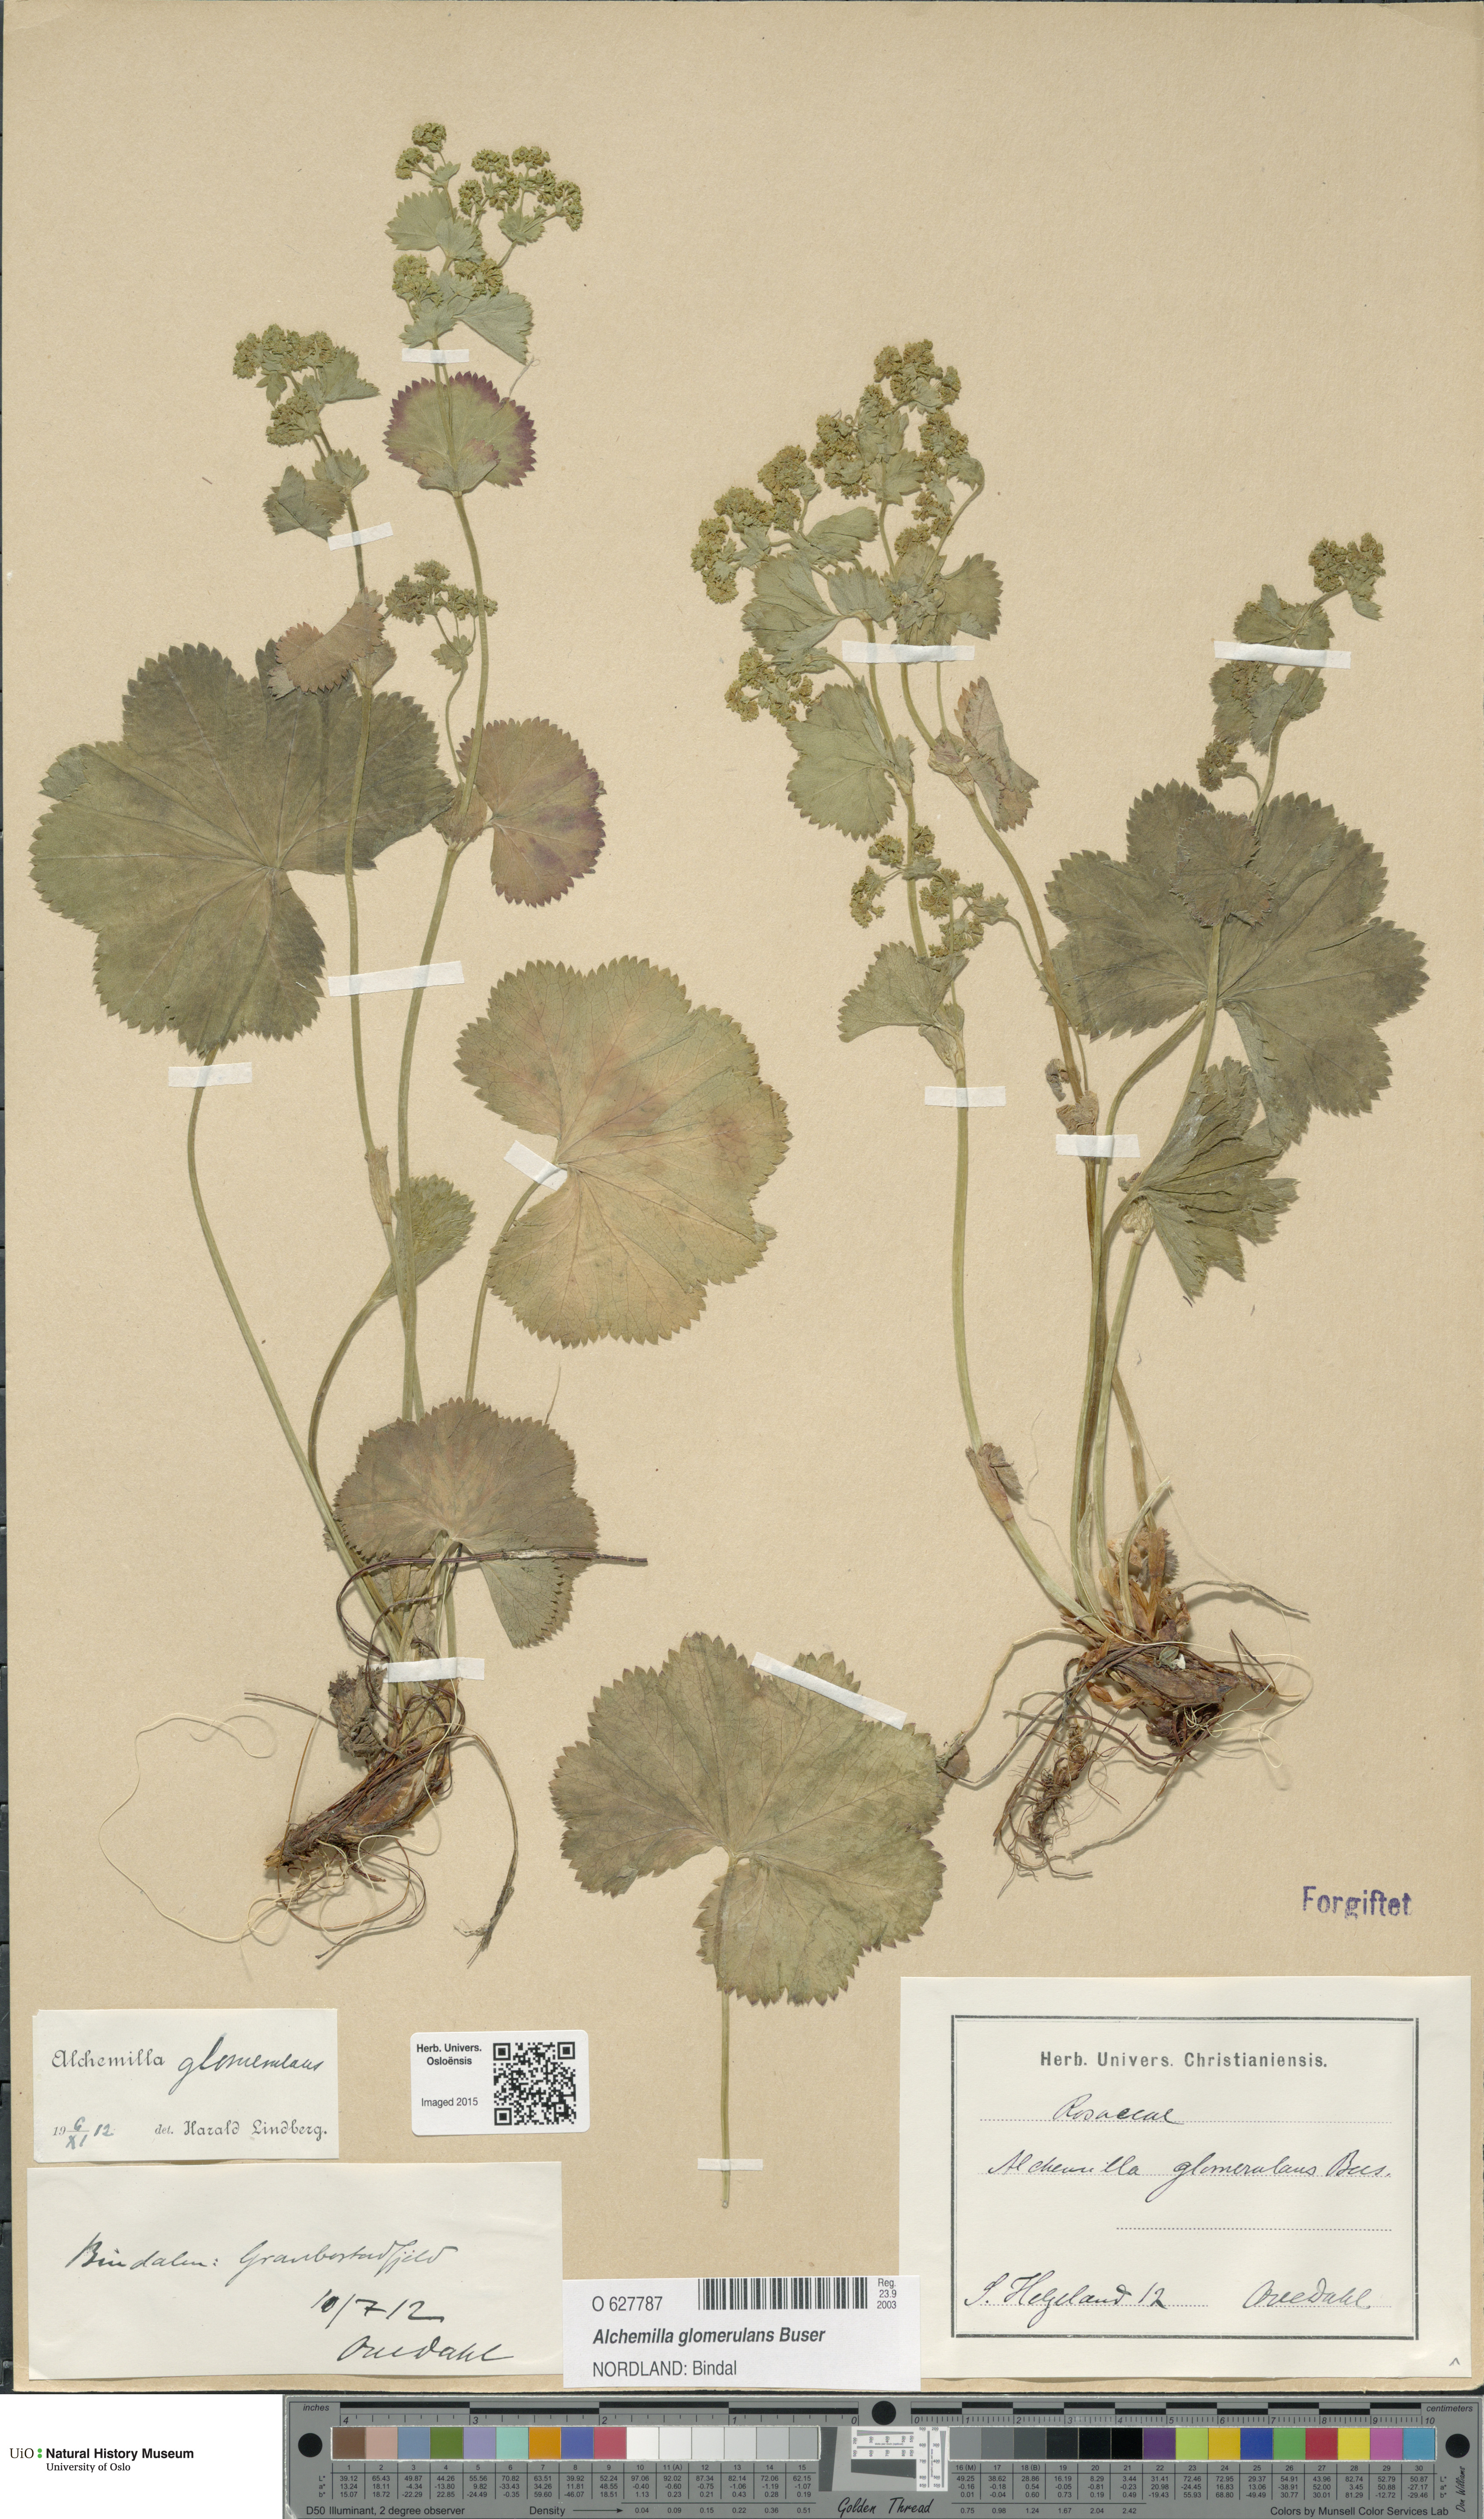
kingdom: Plantae
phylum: Tracheophyta
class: Magnoliopsida
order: Rosales
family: Rosaceae
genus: Alchemilla
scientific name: Alchemilla glomerulans
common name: Clustered lady's mantle
